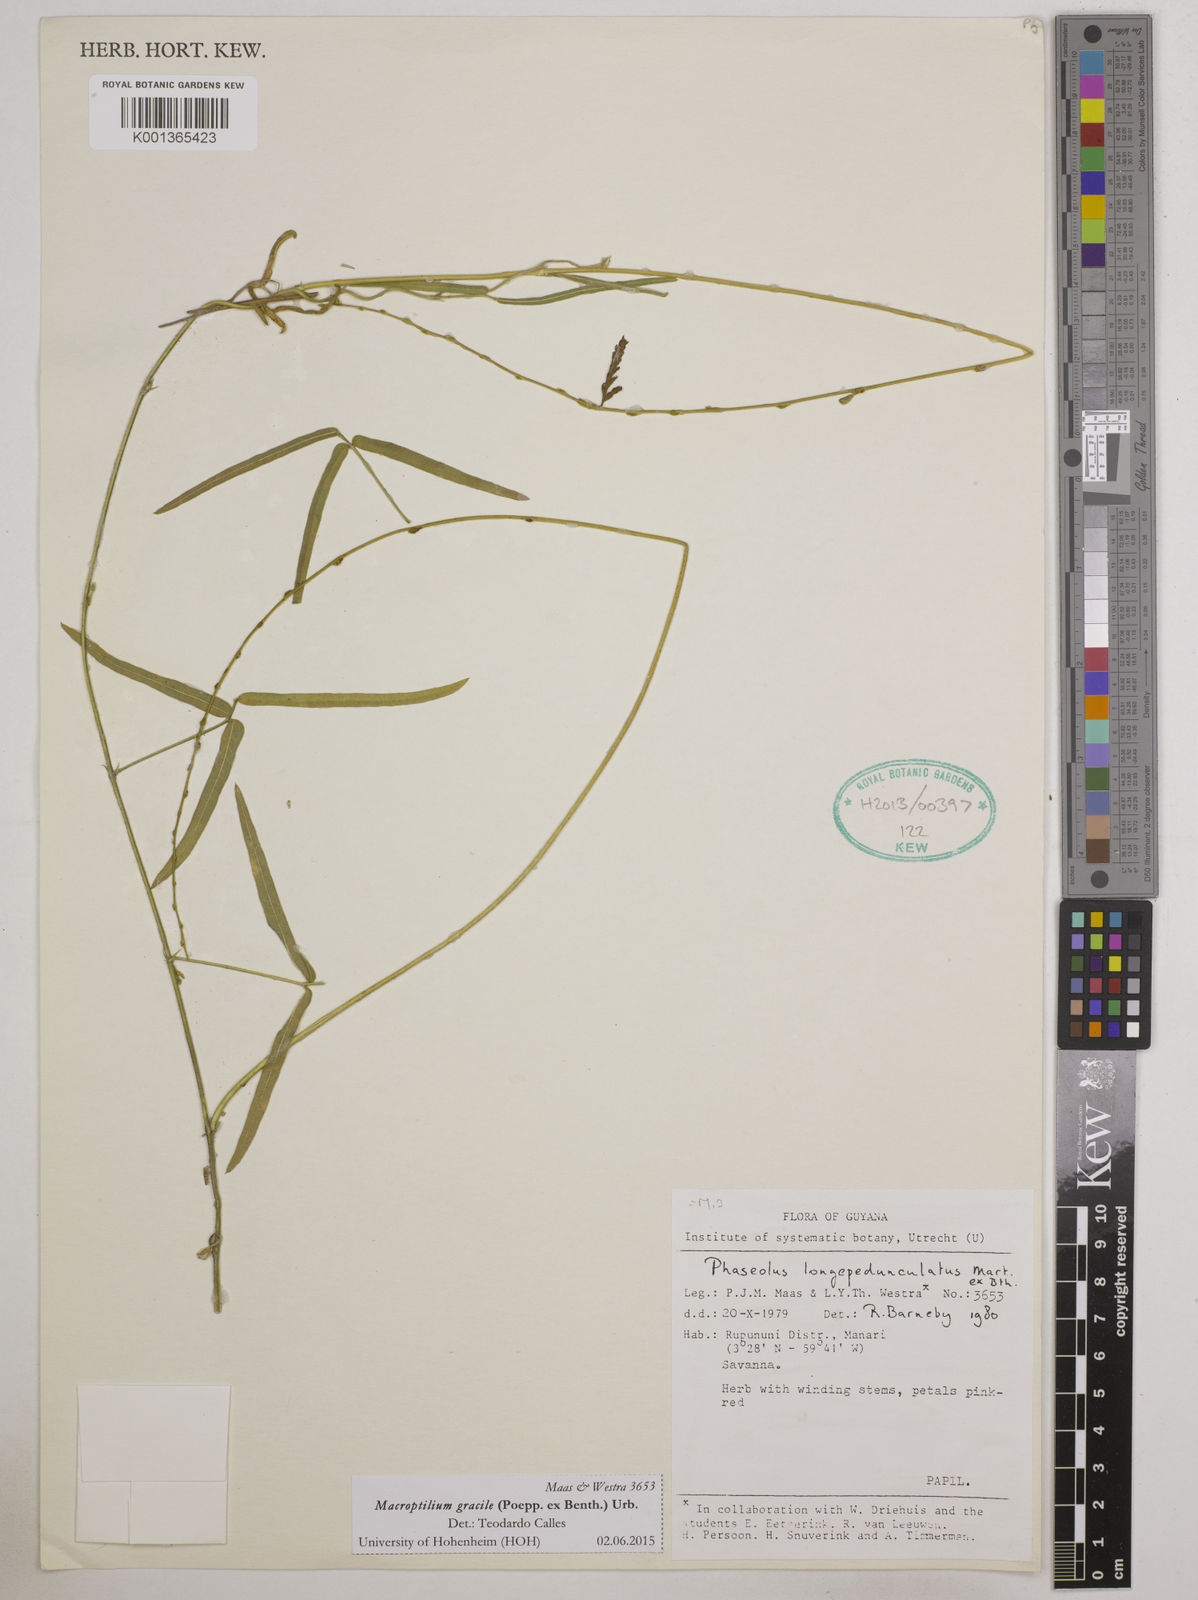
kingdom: Plantae
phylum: Tracheophyta
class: Magnoliopsida
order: Fabales
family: Fabaceae
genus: Macroptilium
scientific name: Macroptilium gracile
